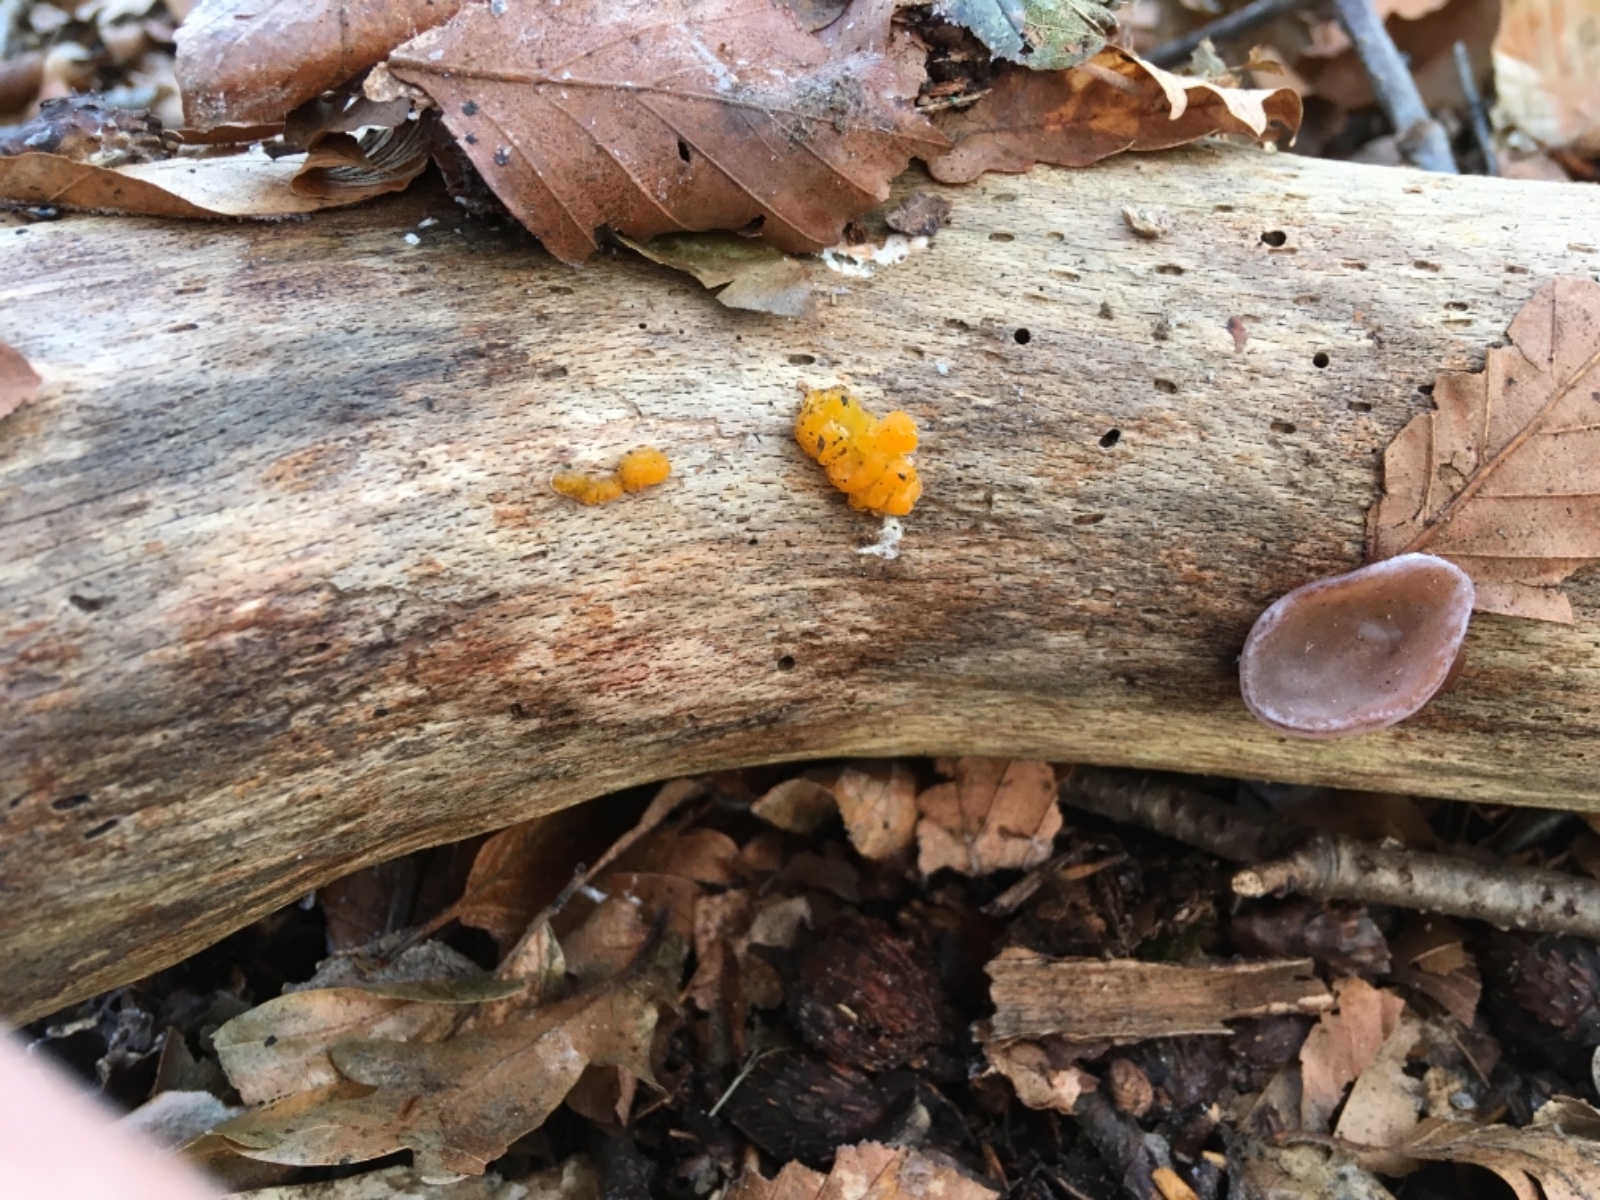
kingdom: Fungi
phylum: Basidiomycota
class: Tremellomycetes
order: Tremellales
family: Tremellaceae
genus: Tremella
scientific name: Tremella mesenterica
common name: gul bævresvamp
